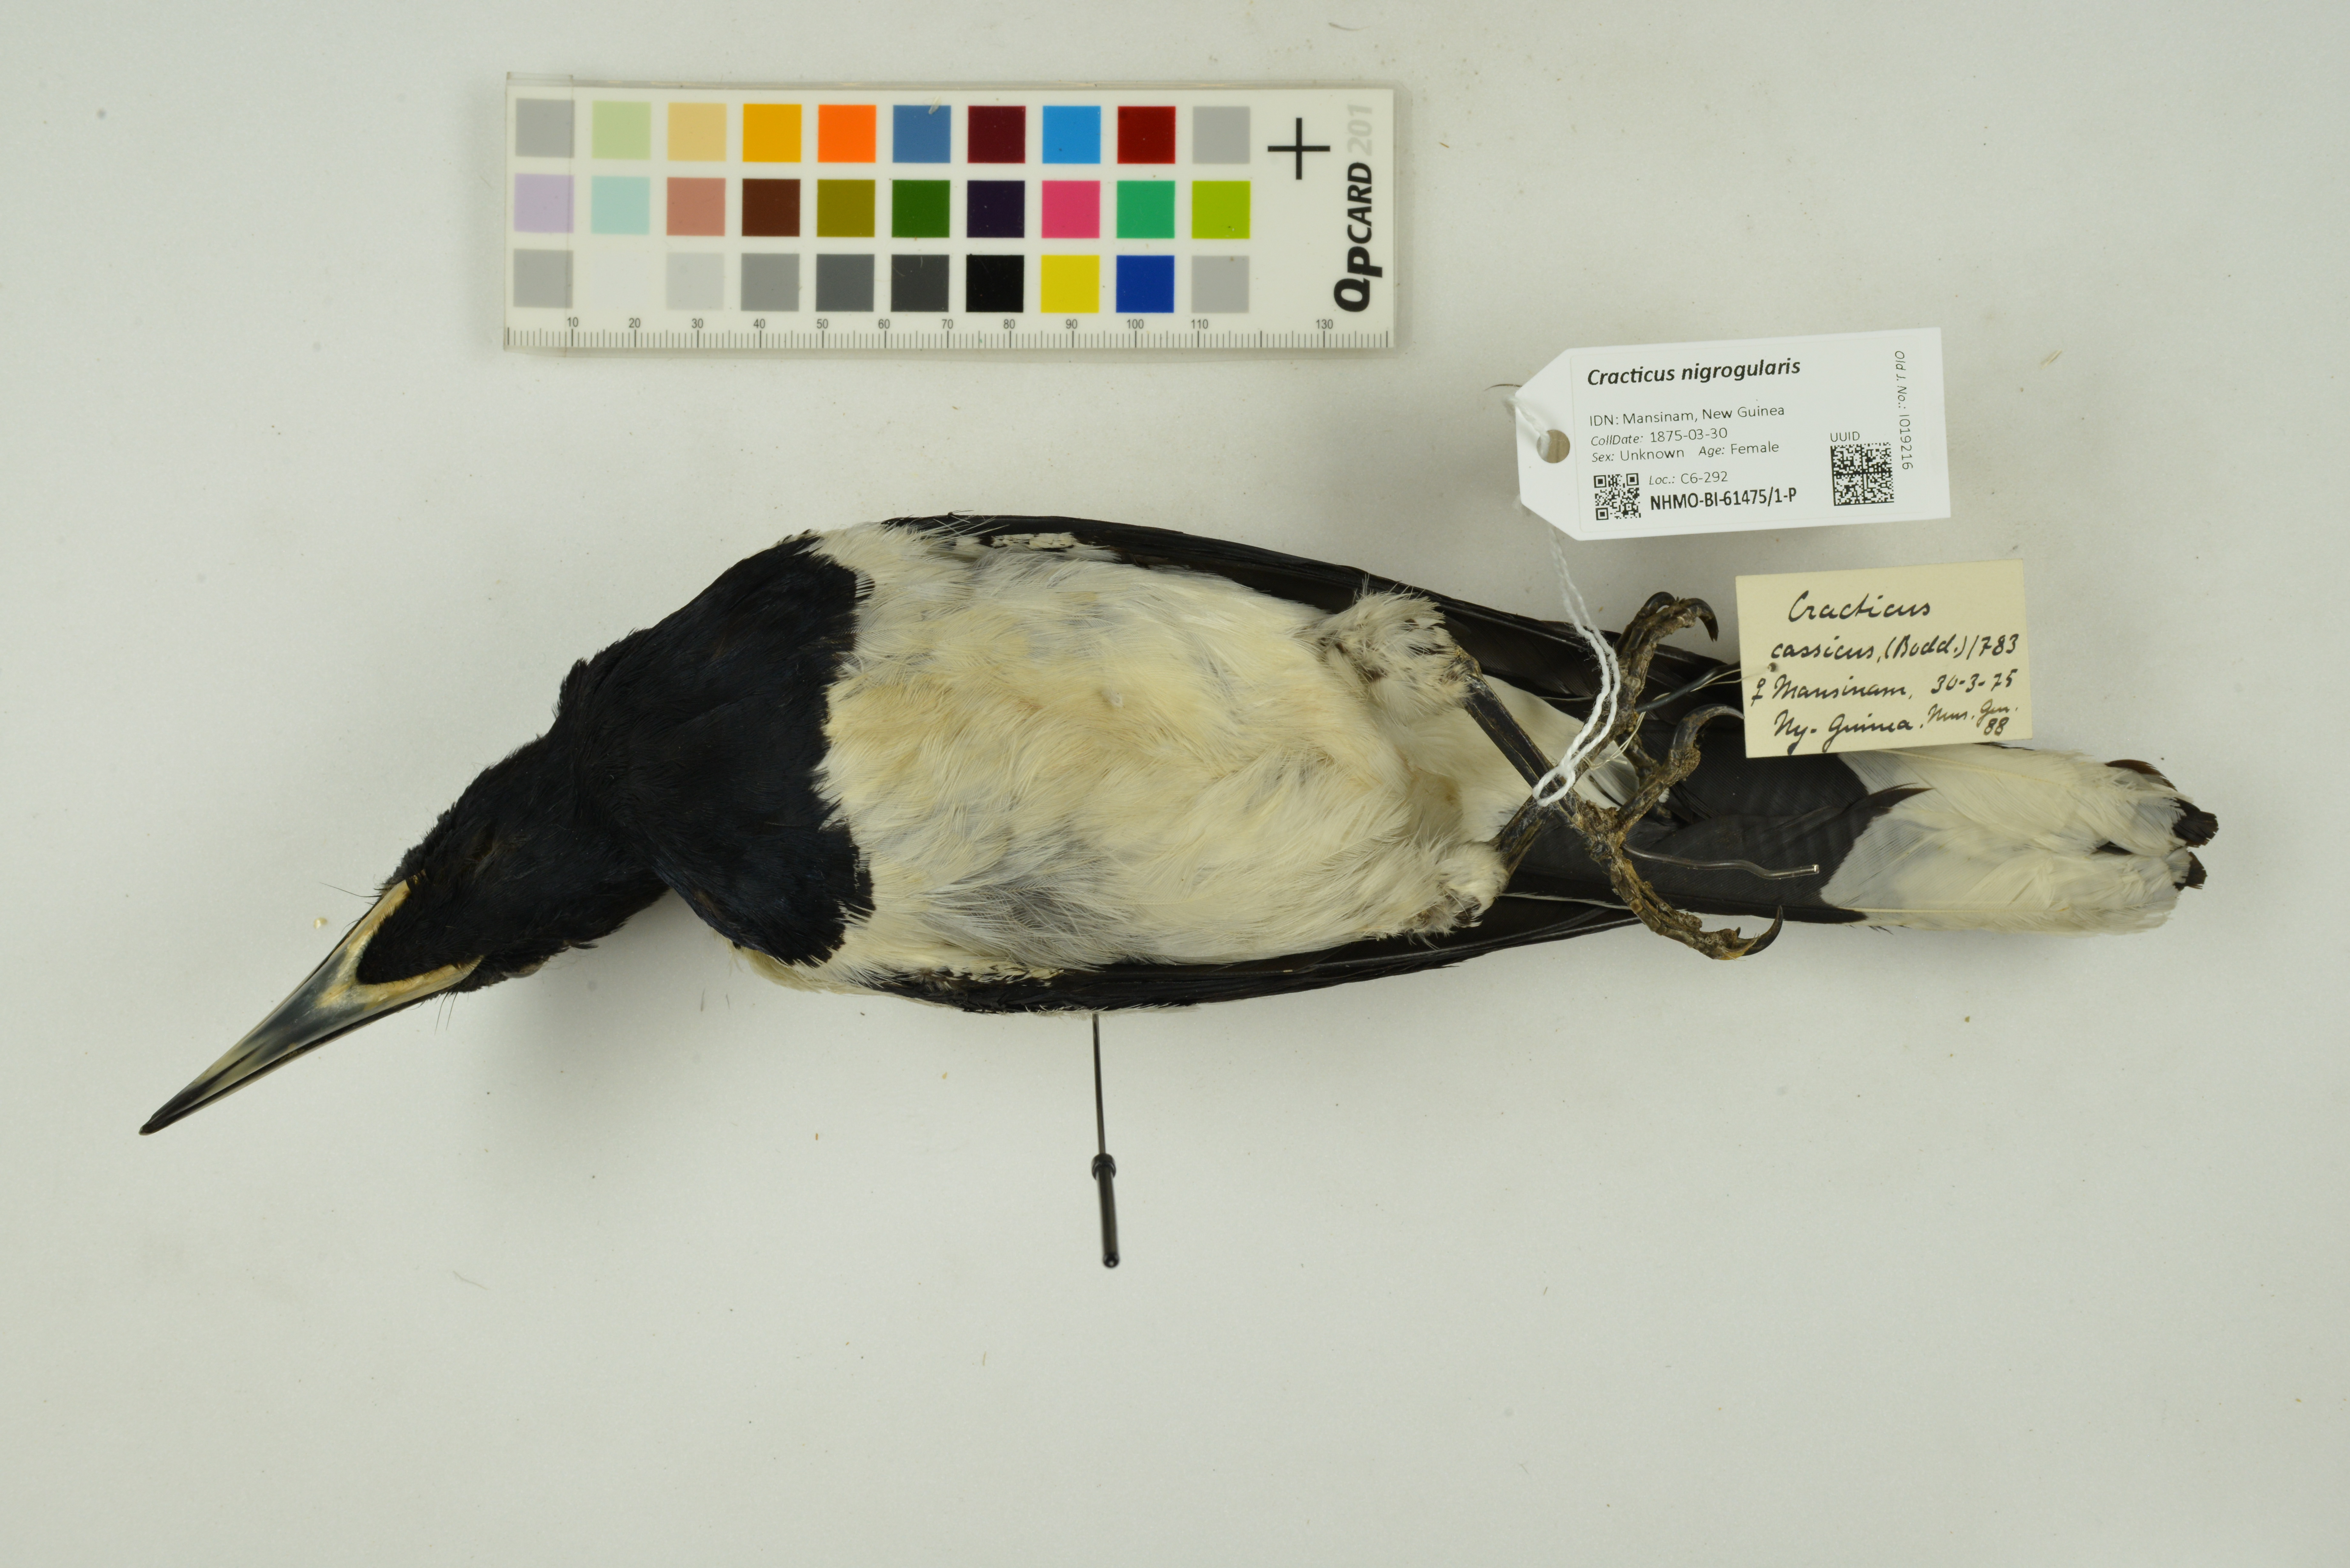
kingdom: Animalia
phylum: Chordata
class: Aves
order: Passeriformes
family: Cracticidae
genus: Cracticus
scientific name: Cracticus nigrogularis
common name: Pied butcherbird
